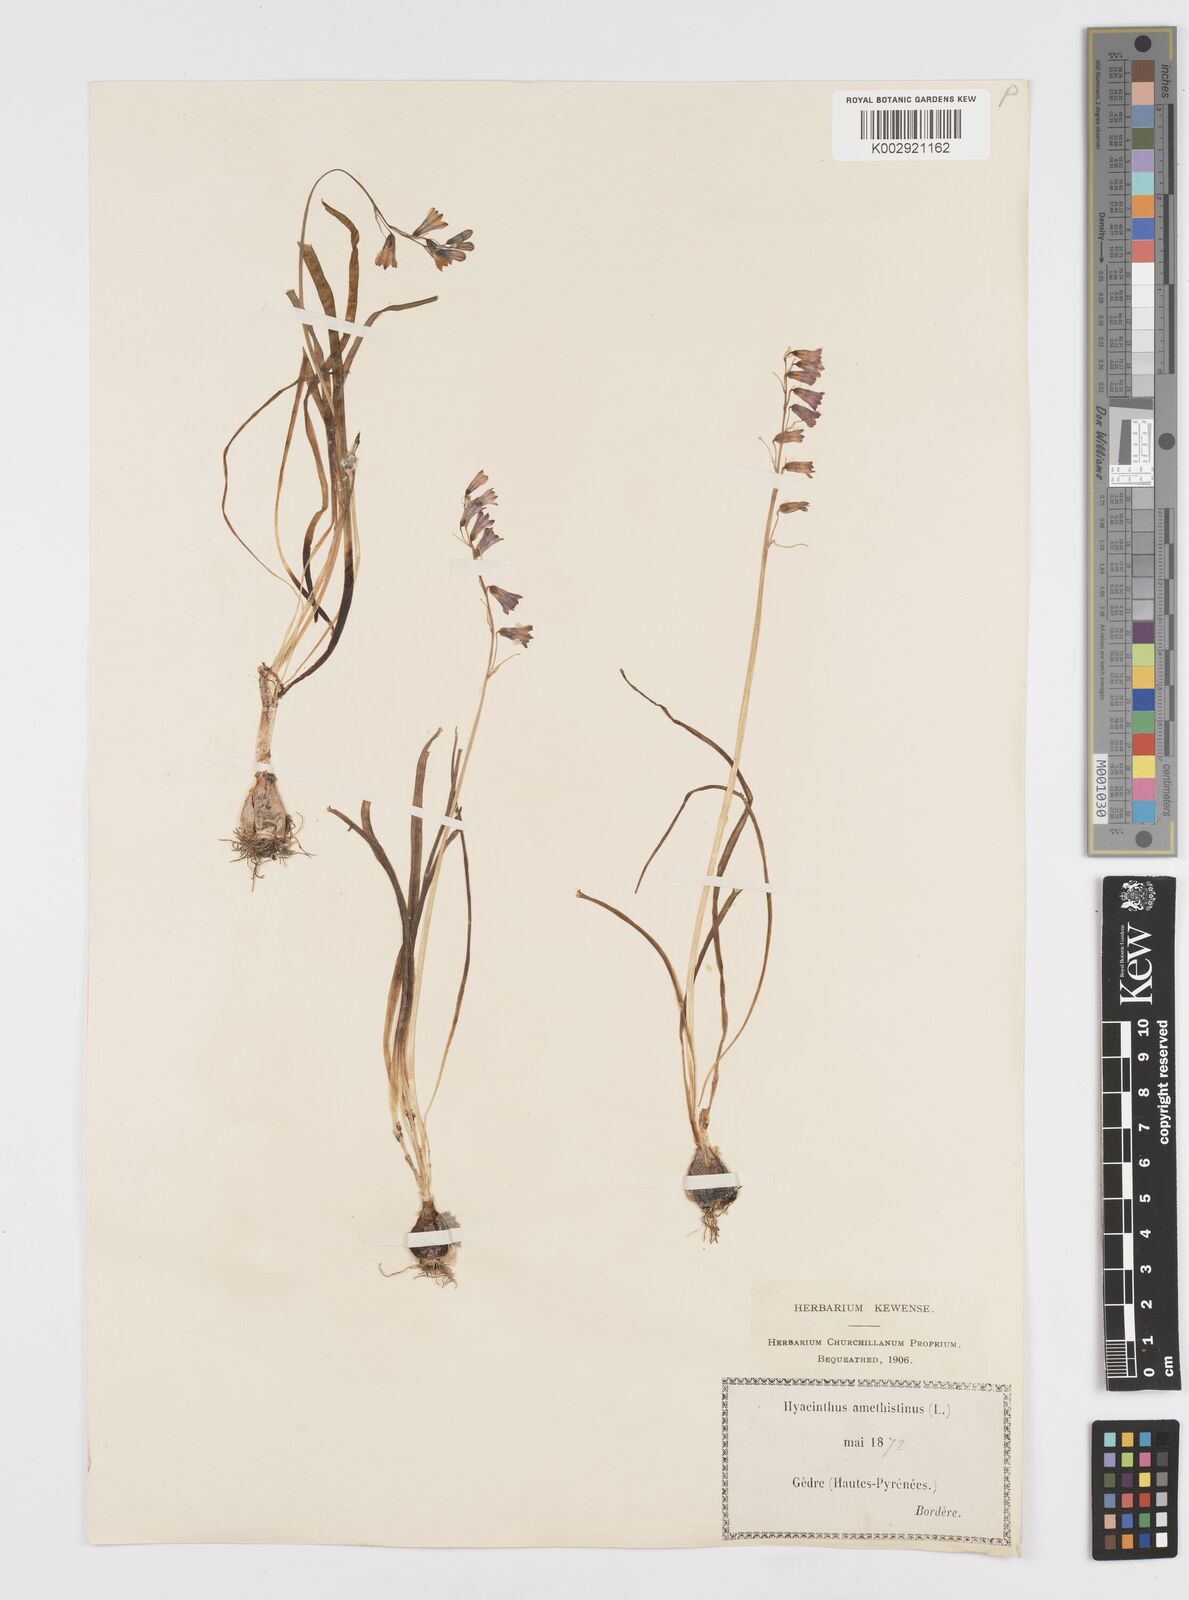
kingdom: Plantae
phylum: Tracheophyta
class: Liliopsida
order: Asparagales
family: Asparagaceae
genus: Brimeura
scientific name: Brimeura amethystina
